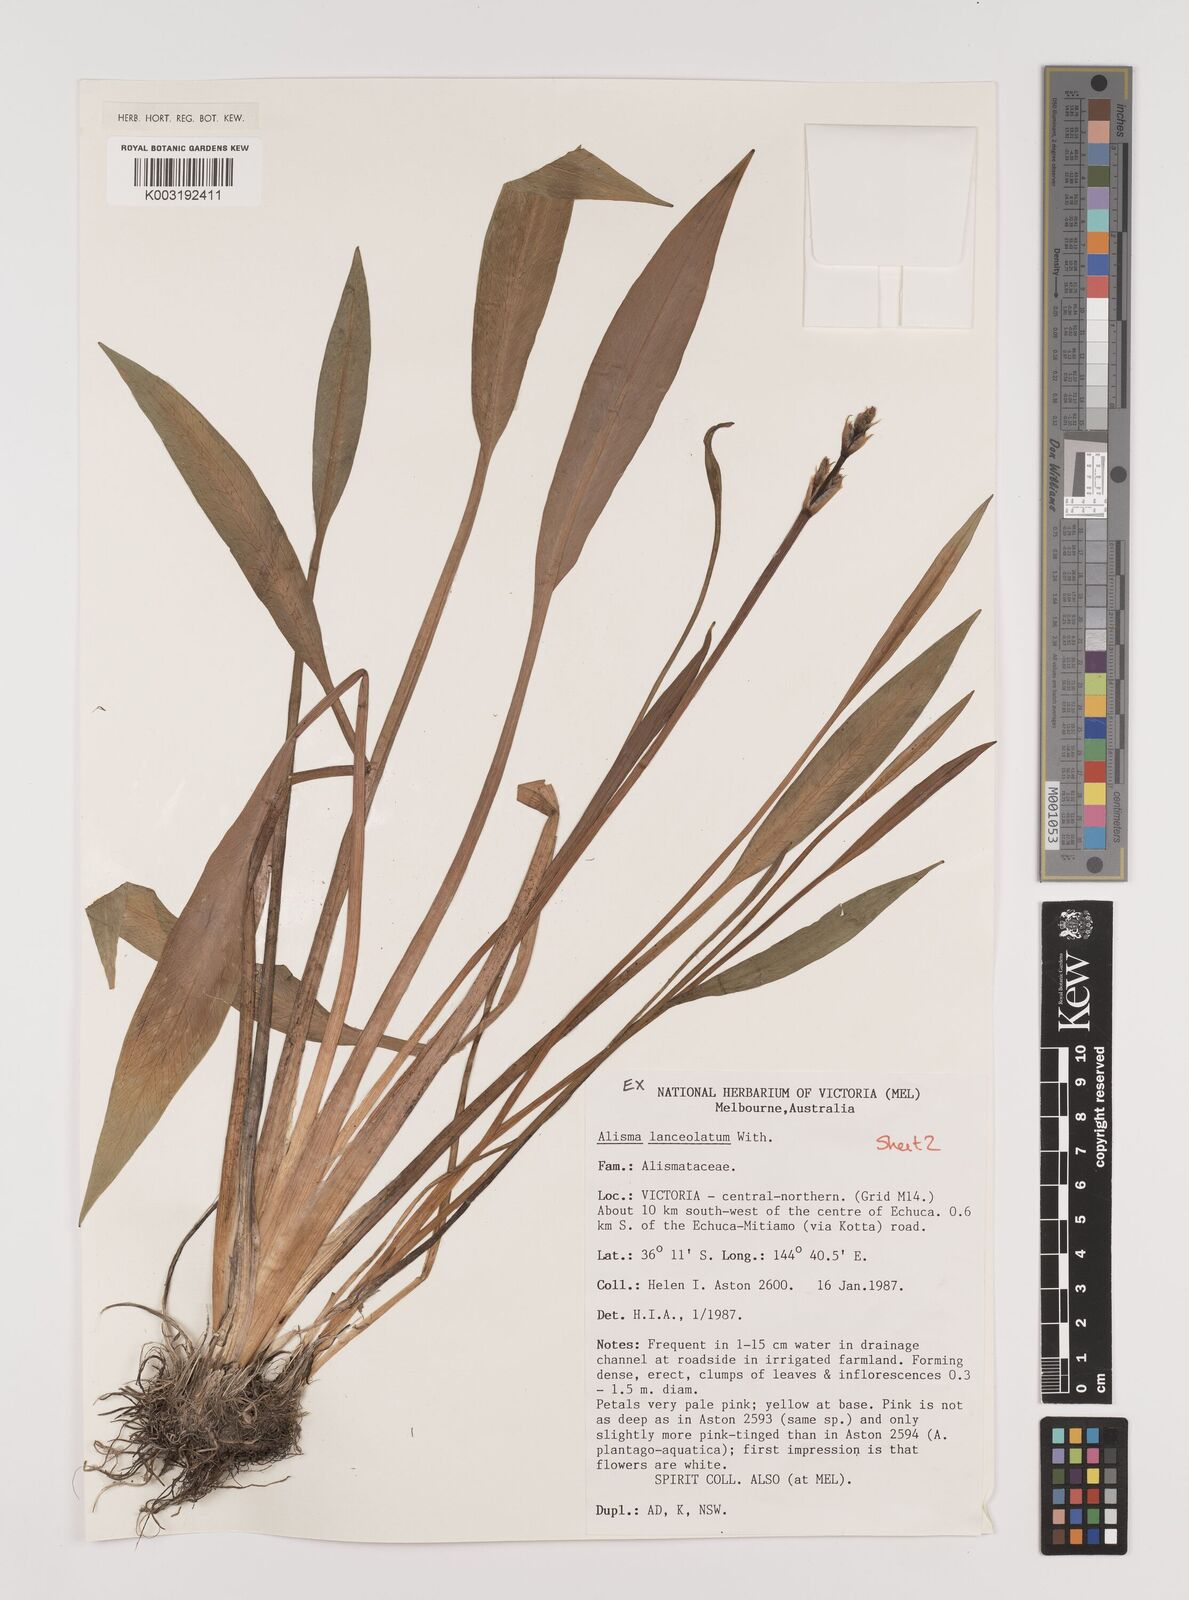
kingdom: Plantae
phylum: Tracheophyta
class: Liliopsida
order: Alismatales
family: Alismataceae
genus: Alisma
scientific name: Alisma lanceolatum
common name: Narrow-leaved water-plantain
